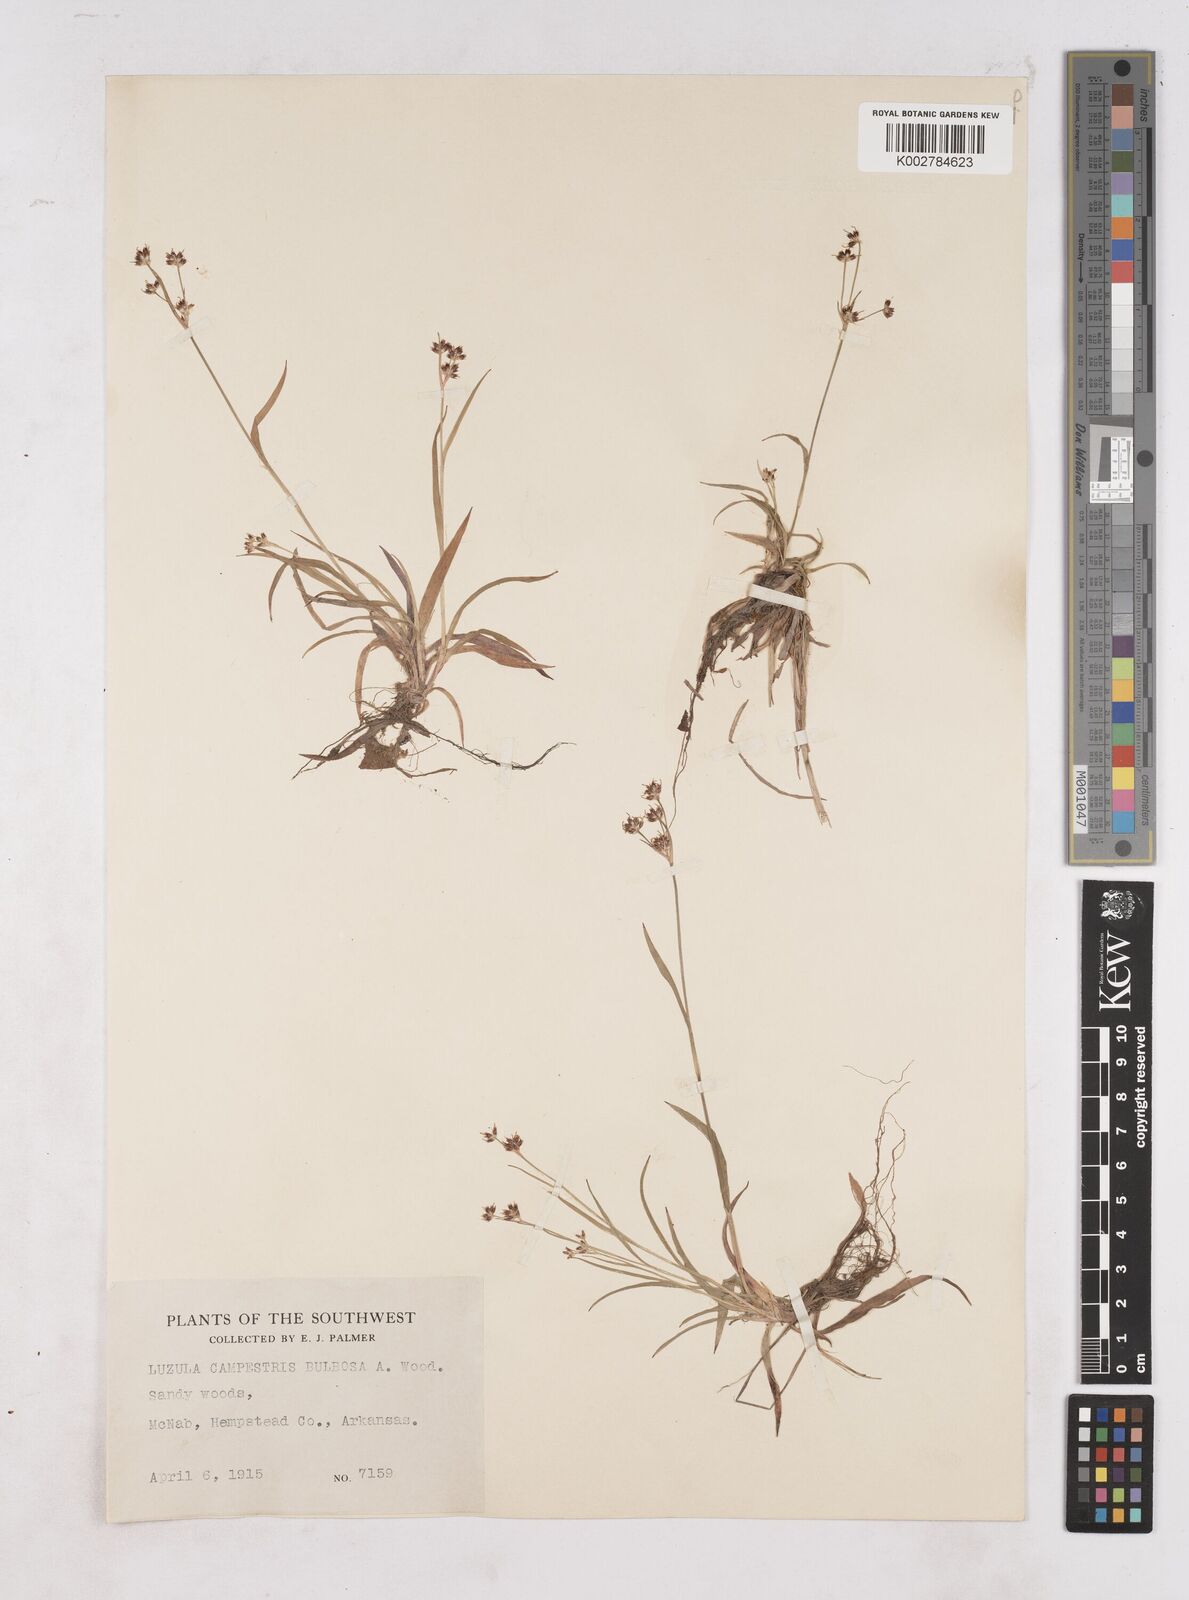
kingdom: Plantae
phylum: Tracheophyta
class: Liliopsida
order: Poales
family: Juncaceae
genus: Luzula
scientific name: Luzula bulbosa
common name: Bulbous woodrush
